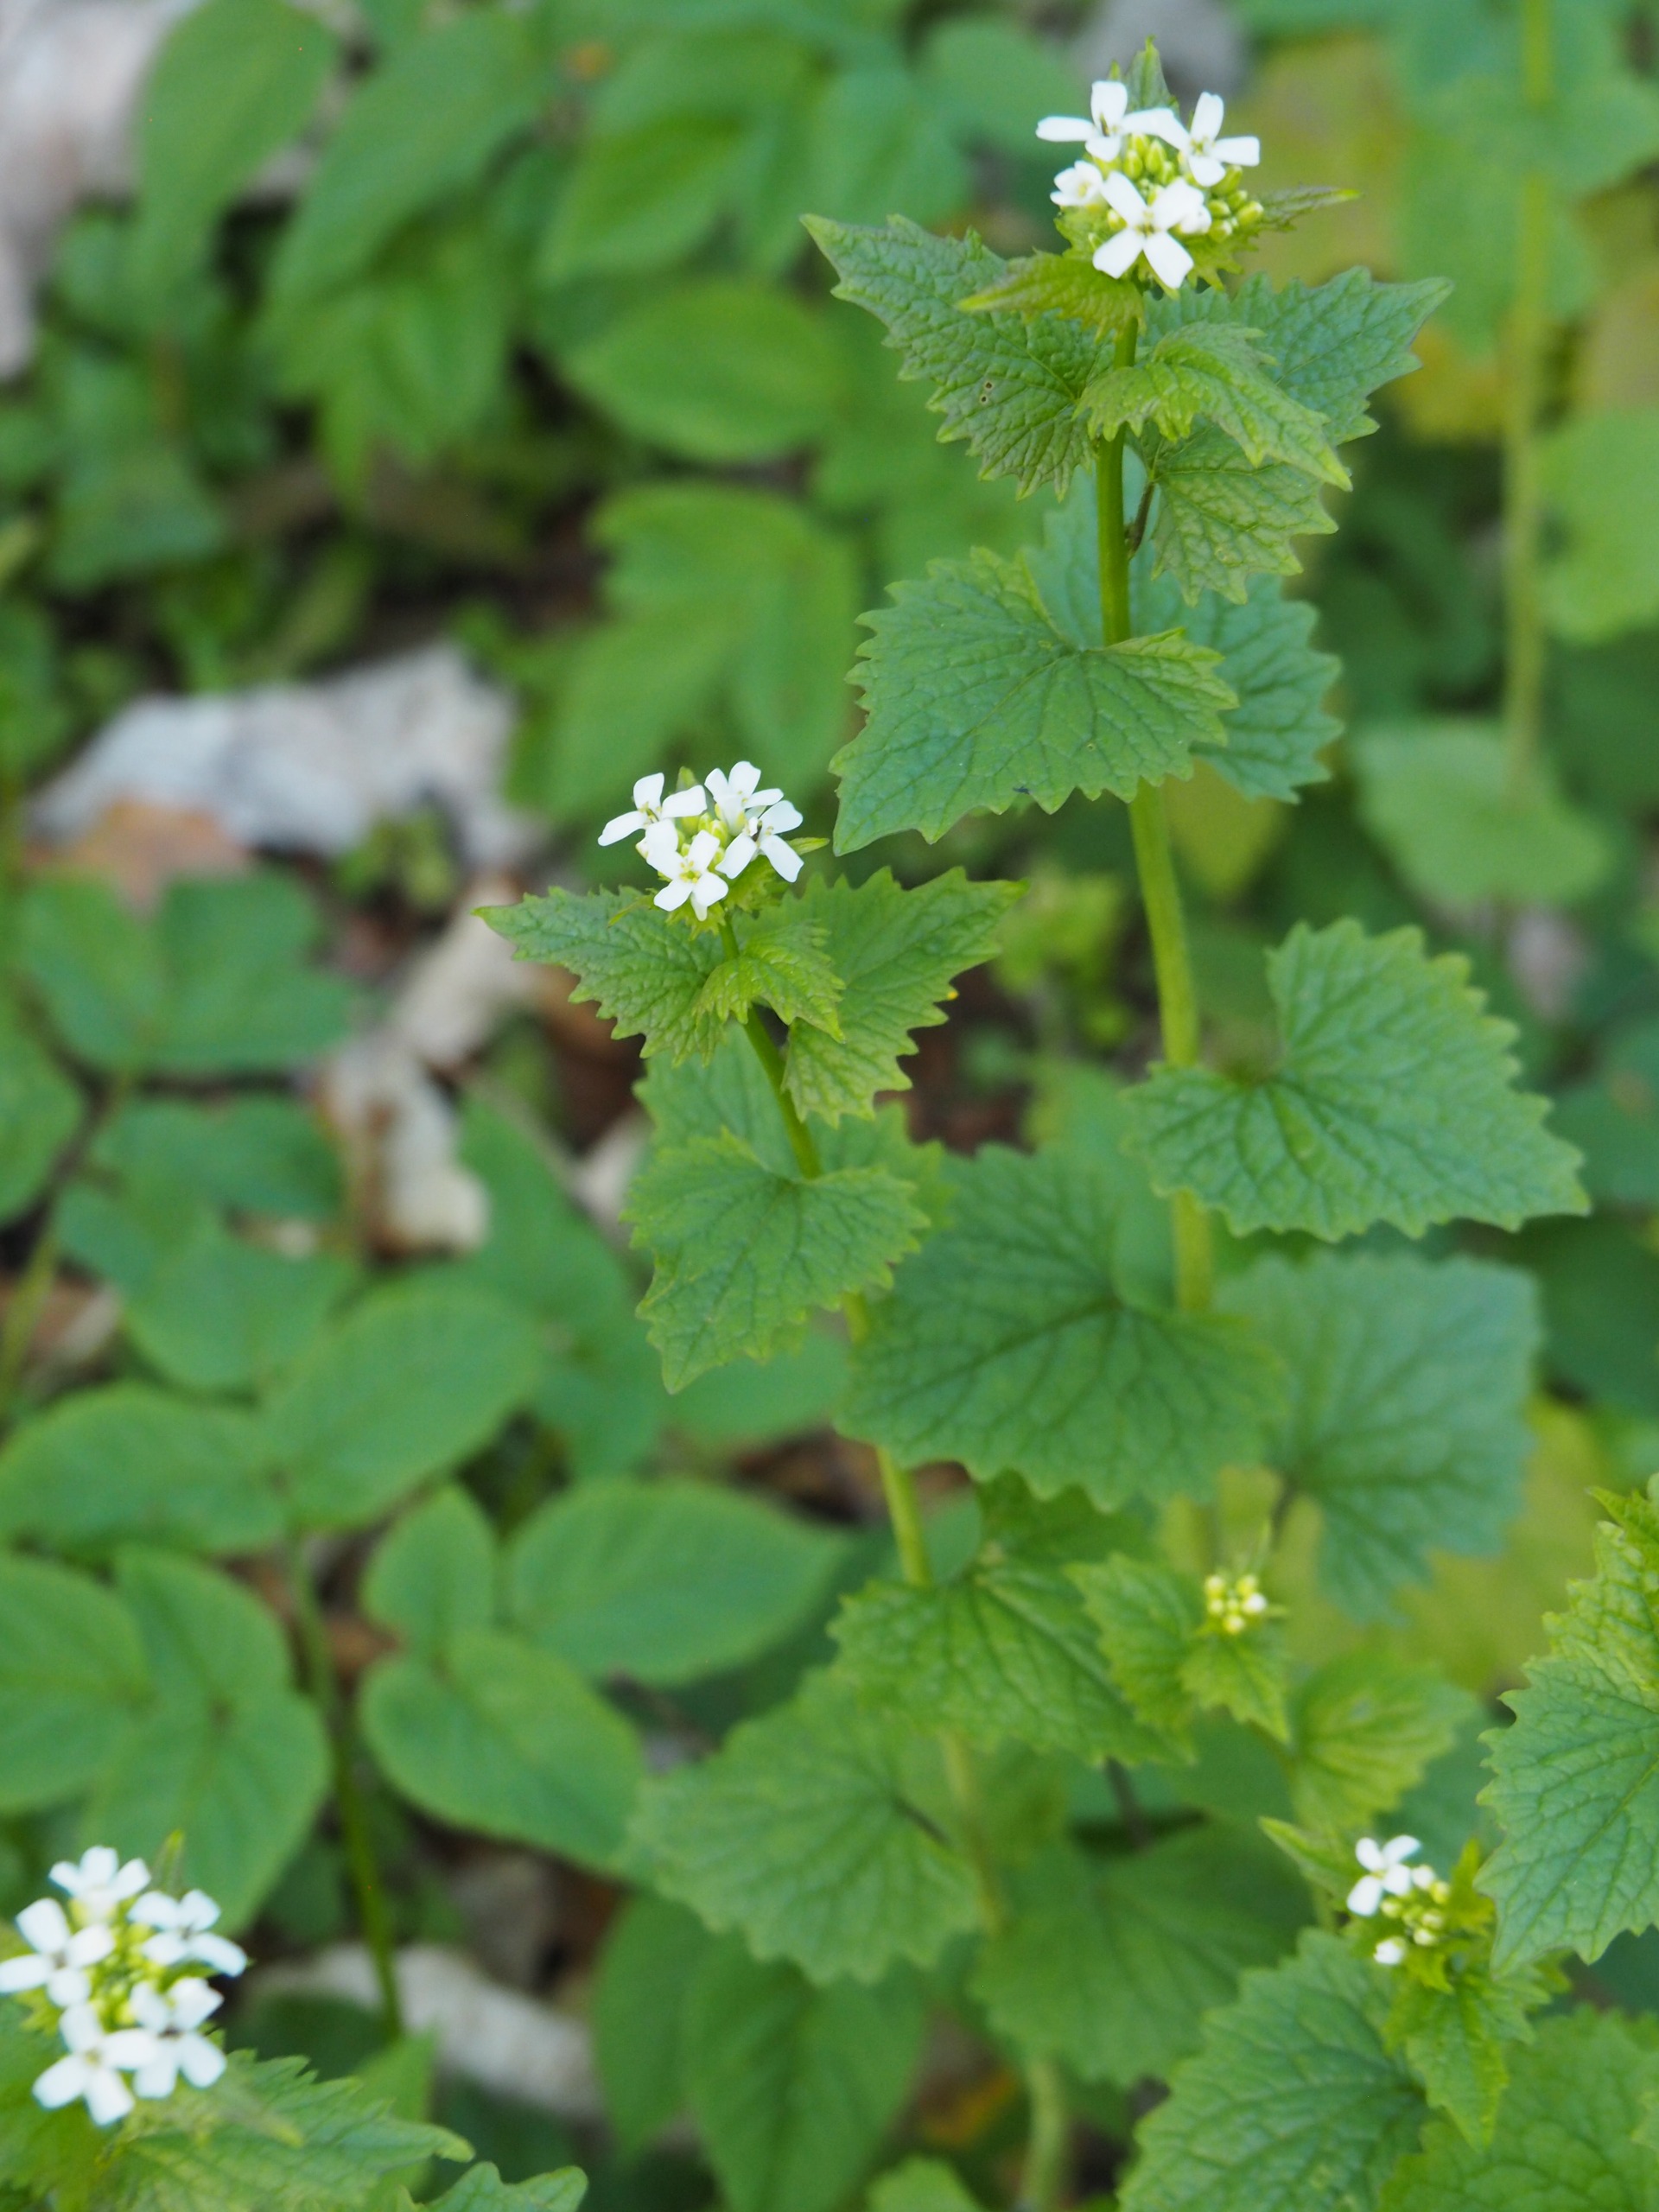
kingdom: Plantae
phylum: Tracheophyta
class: Magnoliopsida
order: Brassicales
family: Brassicaceae
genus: Alliaria
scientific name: Alliaria petiolata
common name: Løgkarse
